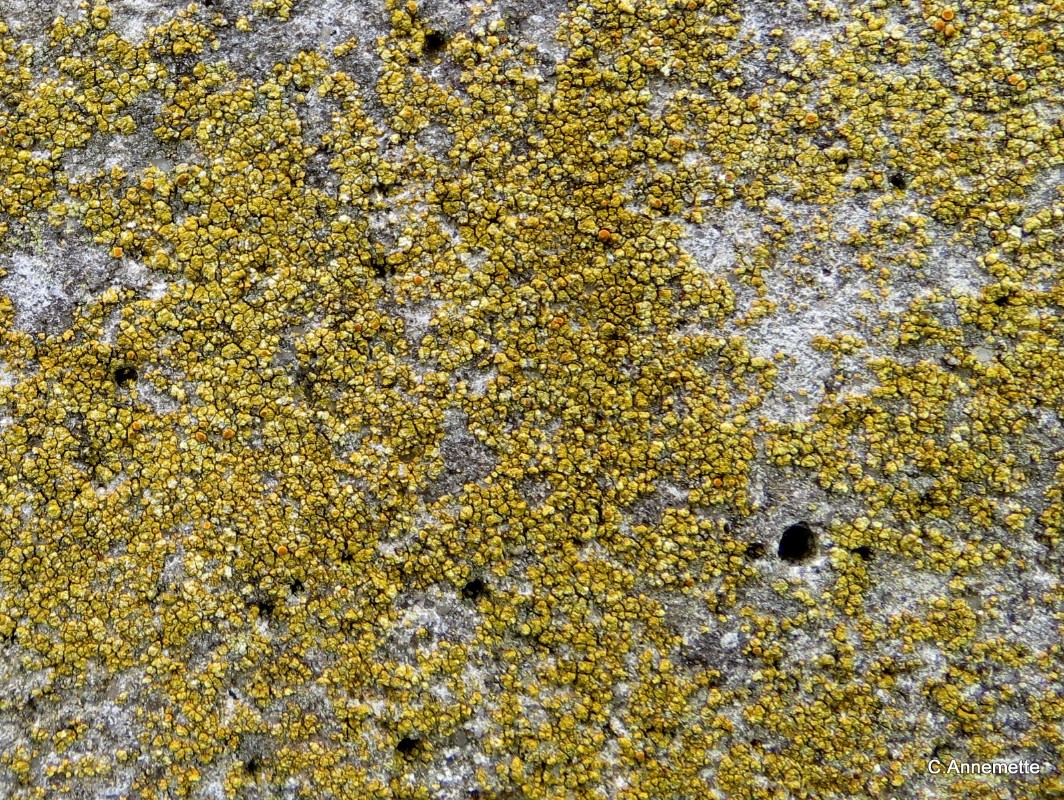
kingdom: Fungi
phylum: Ascomycota
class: Lecanoromycetes
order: Teloschistales
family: Teloschistaceae
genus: Flavoplaca
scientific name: Flavoplaca flavocitrina
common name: grynskællet orangelav
